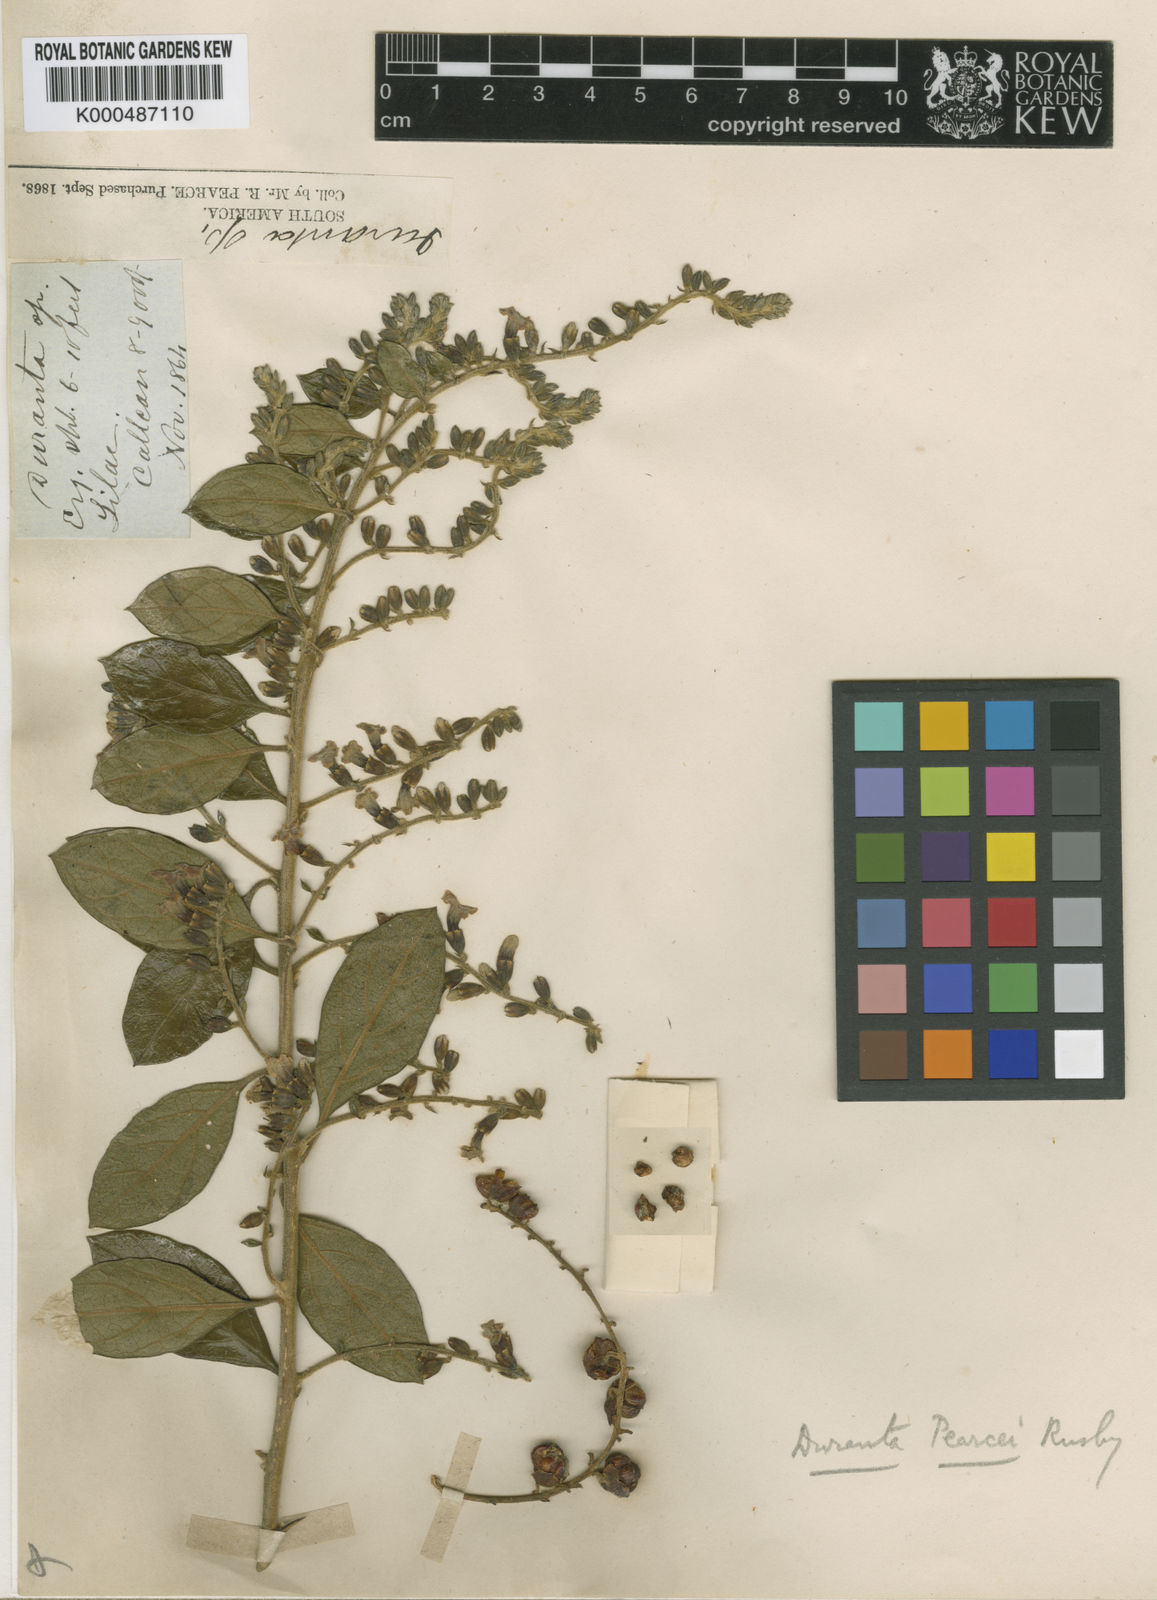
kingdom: Plantae
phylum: Tracheophyta
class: Magnoliopsida
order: Fabales
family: Polygalaceae
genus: Bredemeyera
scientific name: Bredemeyera densiflora
